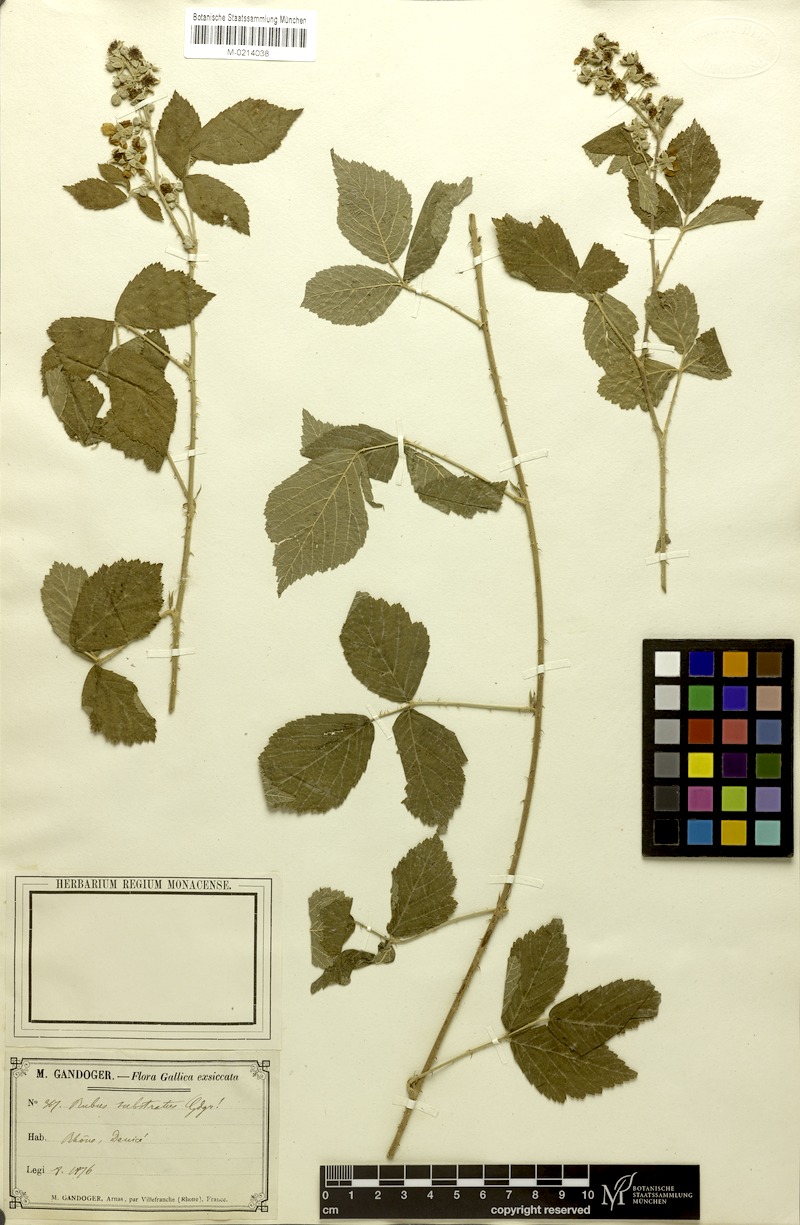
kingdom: Plantae
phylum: Tracheophyta
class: Magnoliopsida
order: Rosales
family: Rosaceae
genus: Rubus
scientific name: Rubus
